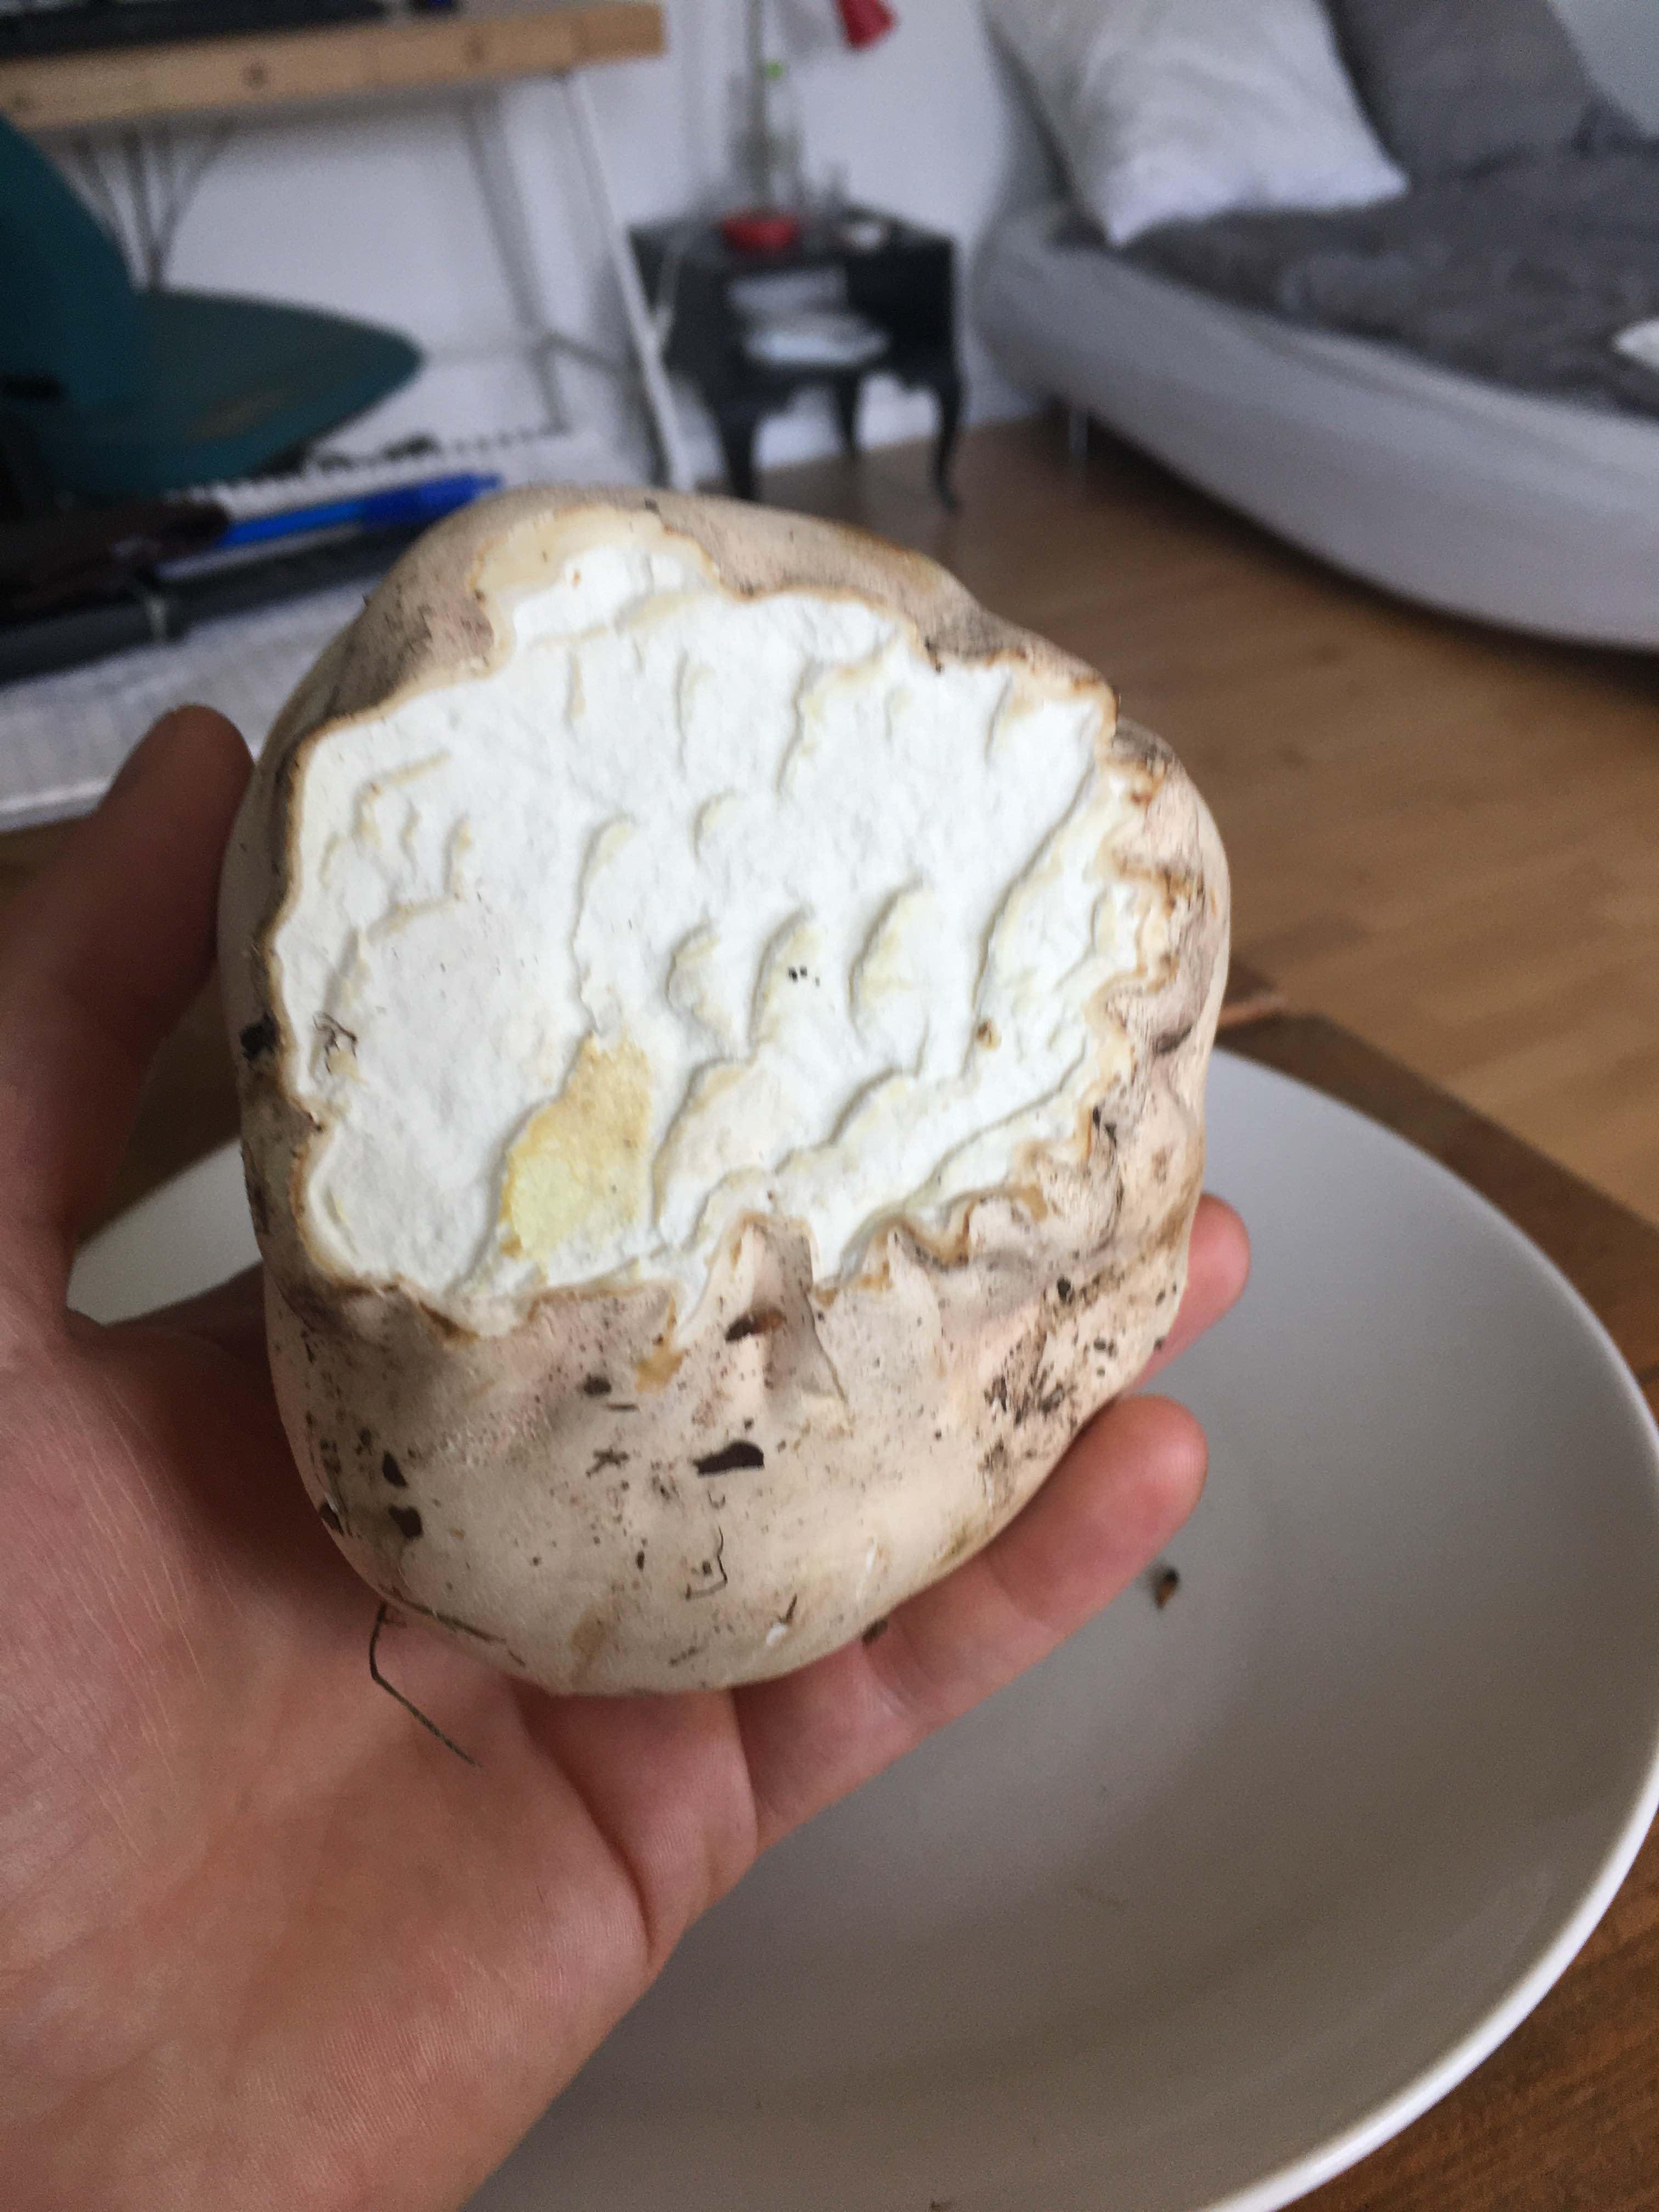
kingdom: Fungi
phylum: Basidiomycota
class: Agaricomycetes
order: Agaricales
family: Lycoperdaceae
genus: Calvatia
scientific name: Calvatia gigantea
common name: kæmpestøvbold
